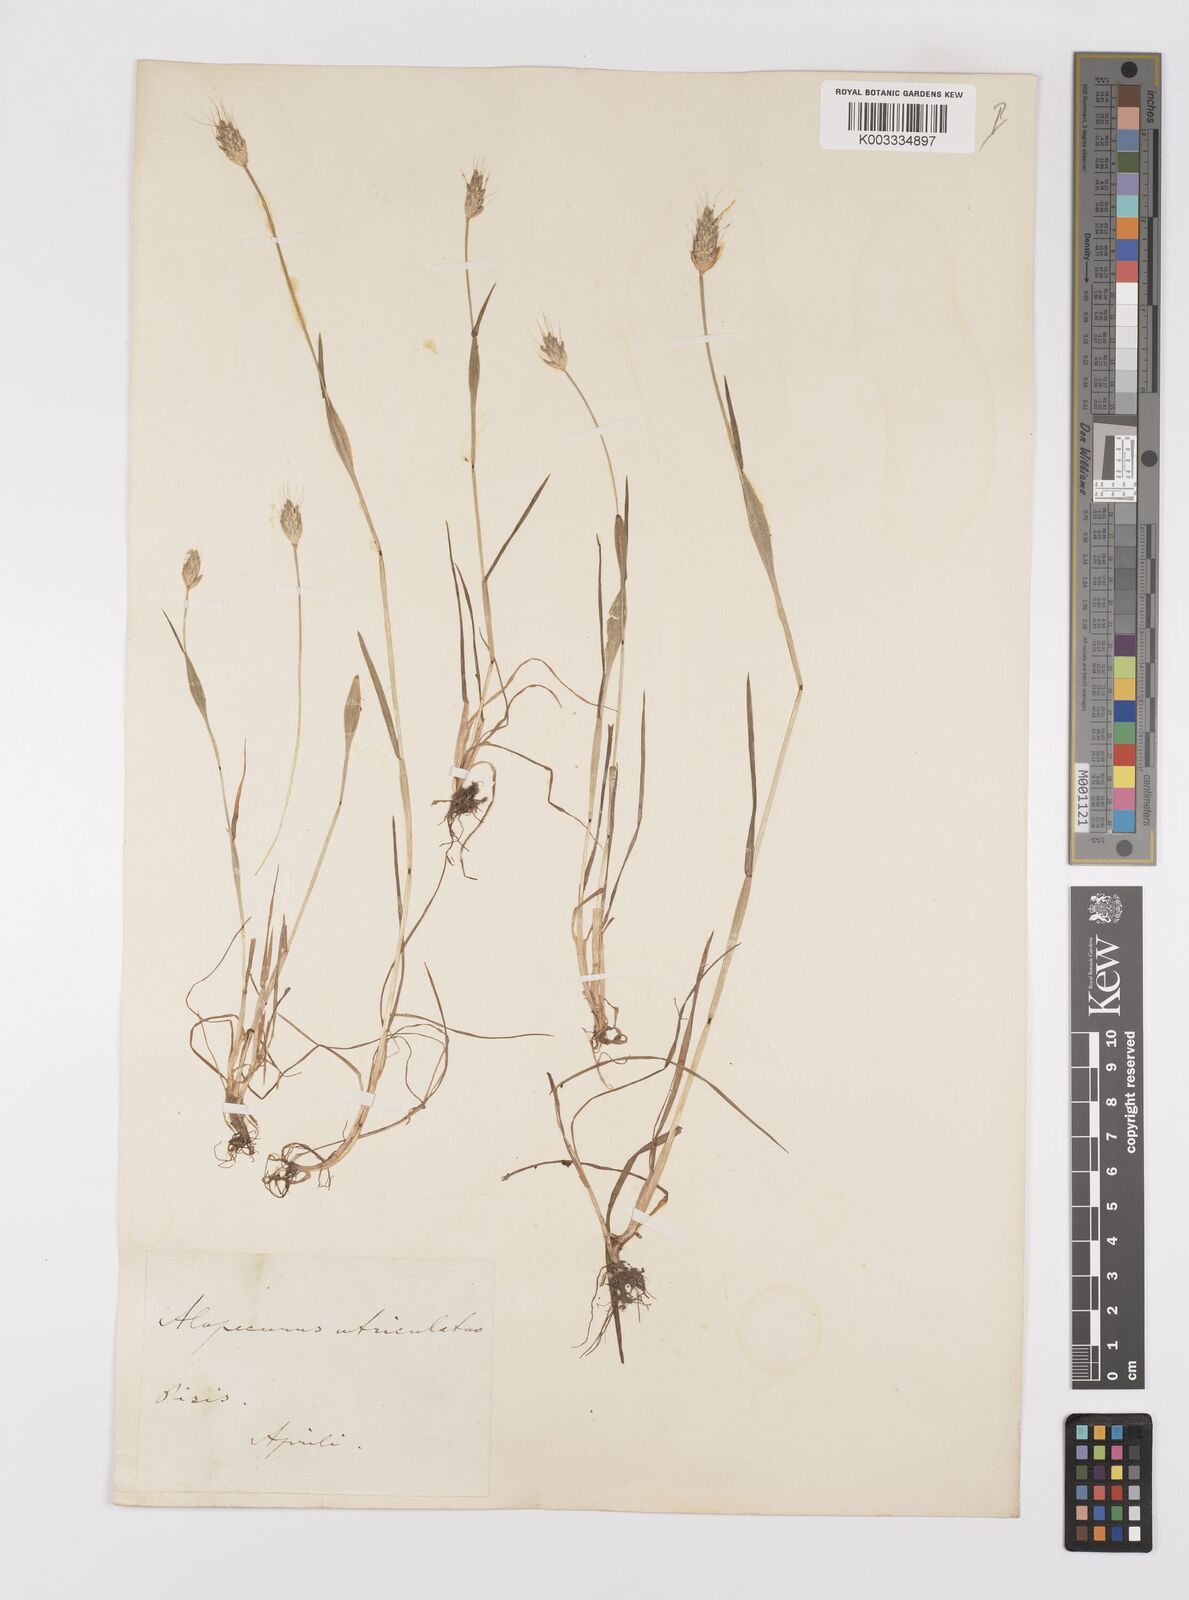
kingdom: Plantae
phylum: Tracheophyta
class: Liliopsida
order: Poales
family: Poaceae
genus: Alopecurus
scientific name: Alopecurus rendlei
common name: Rendle's meadow foxtail
